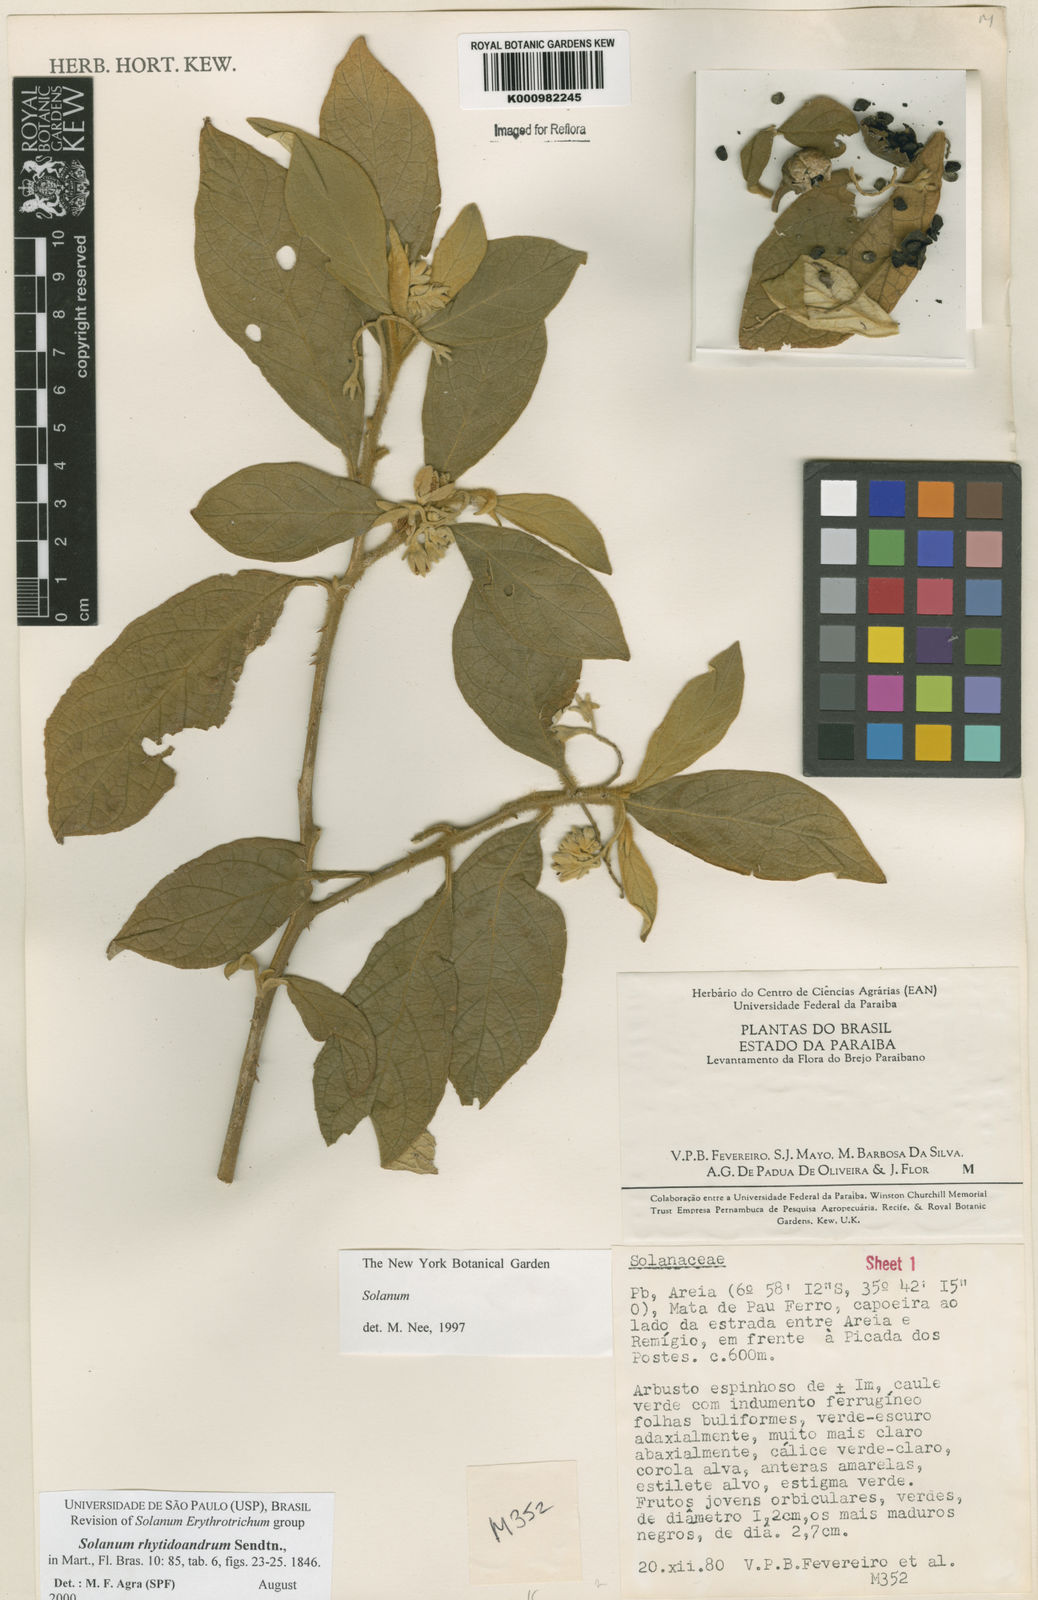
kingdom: Plantae
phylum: Tracheophyta
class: Magnoliopsida
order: Solanales
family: Solanaceae
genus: Solanum
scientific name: Solanum rhytidoandrum
